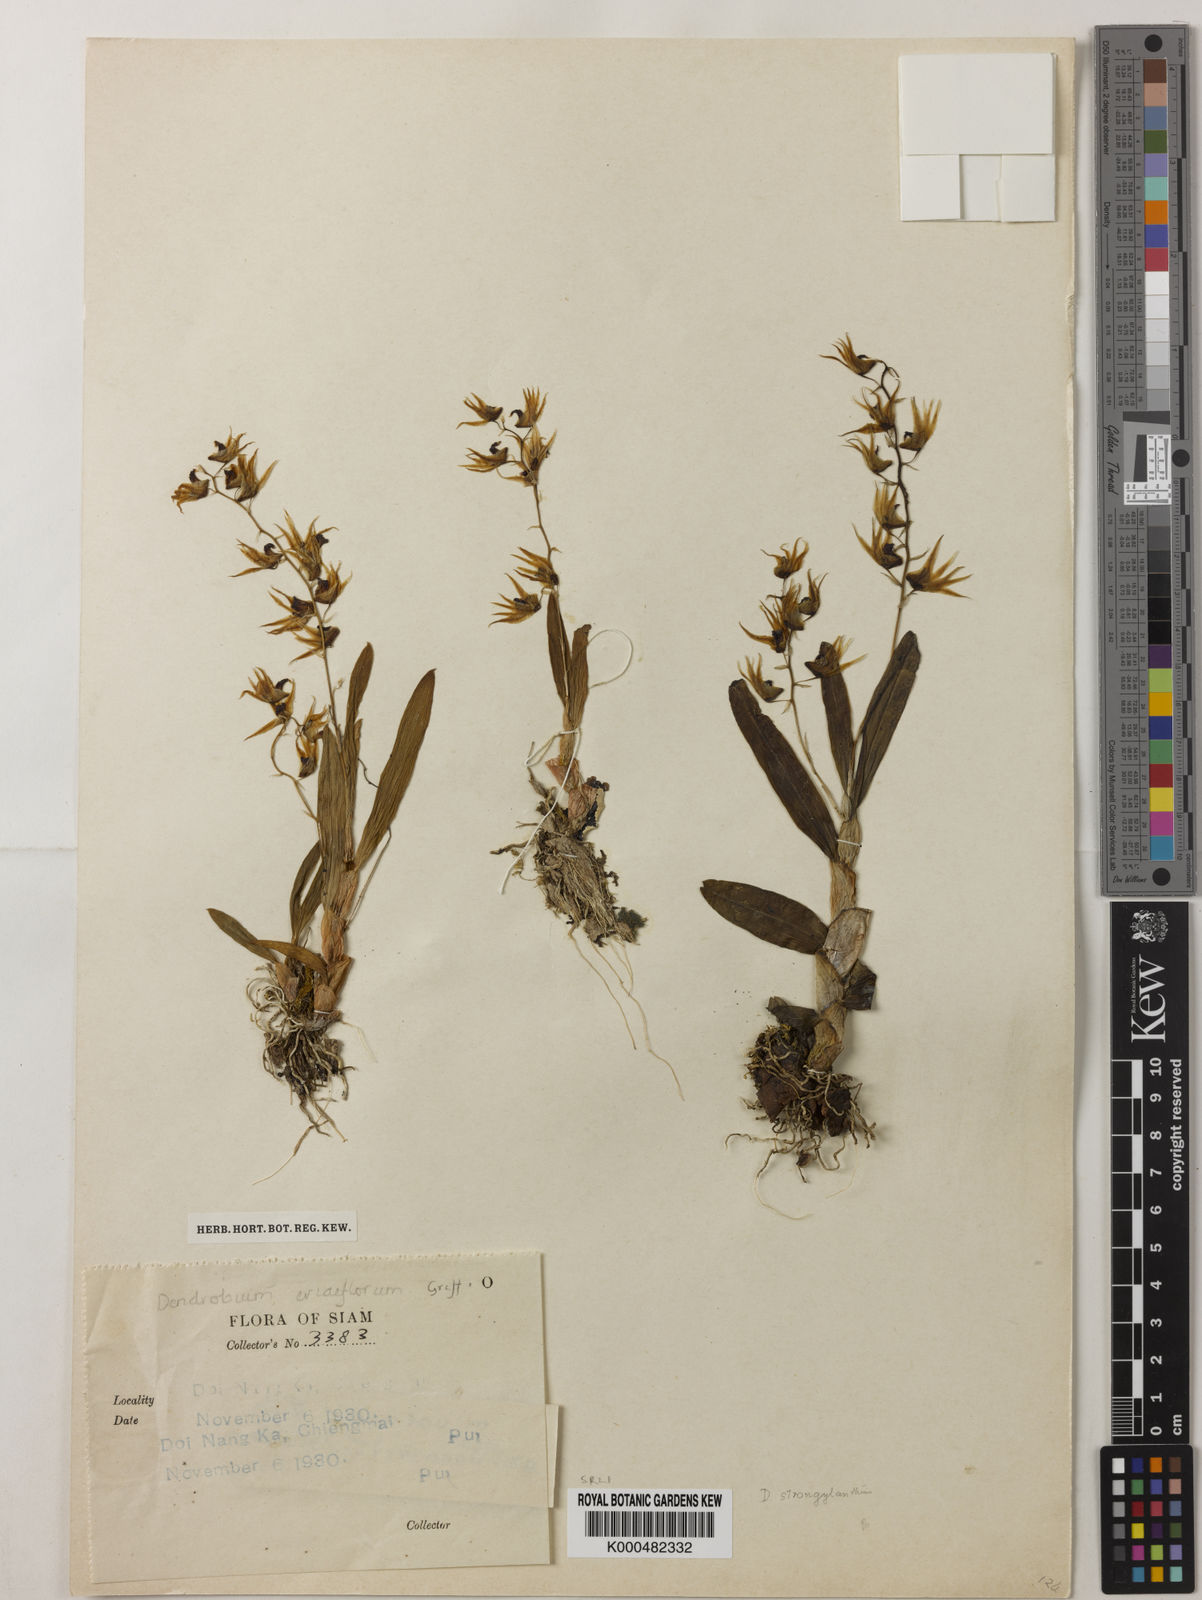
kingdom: Plantae
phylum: Tracheophyta
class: Liliopsida
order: Asparagales
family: Orchidaceae
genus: Dendrobium
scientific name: Dendrobium strongylanthum
